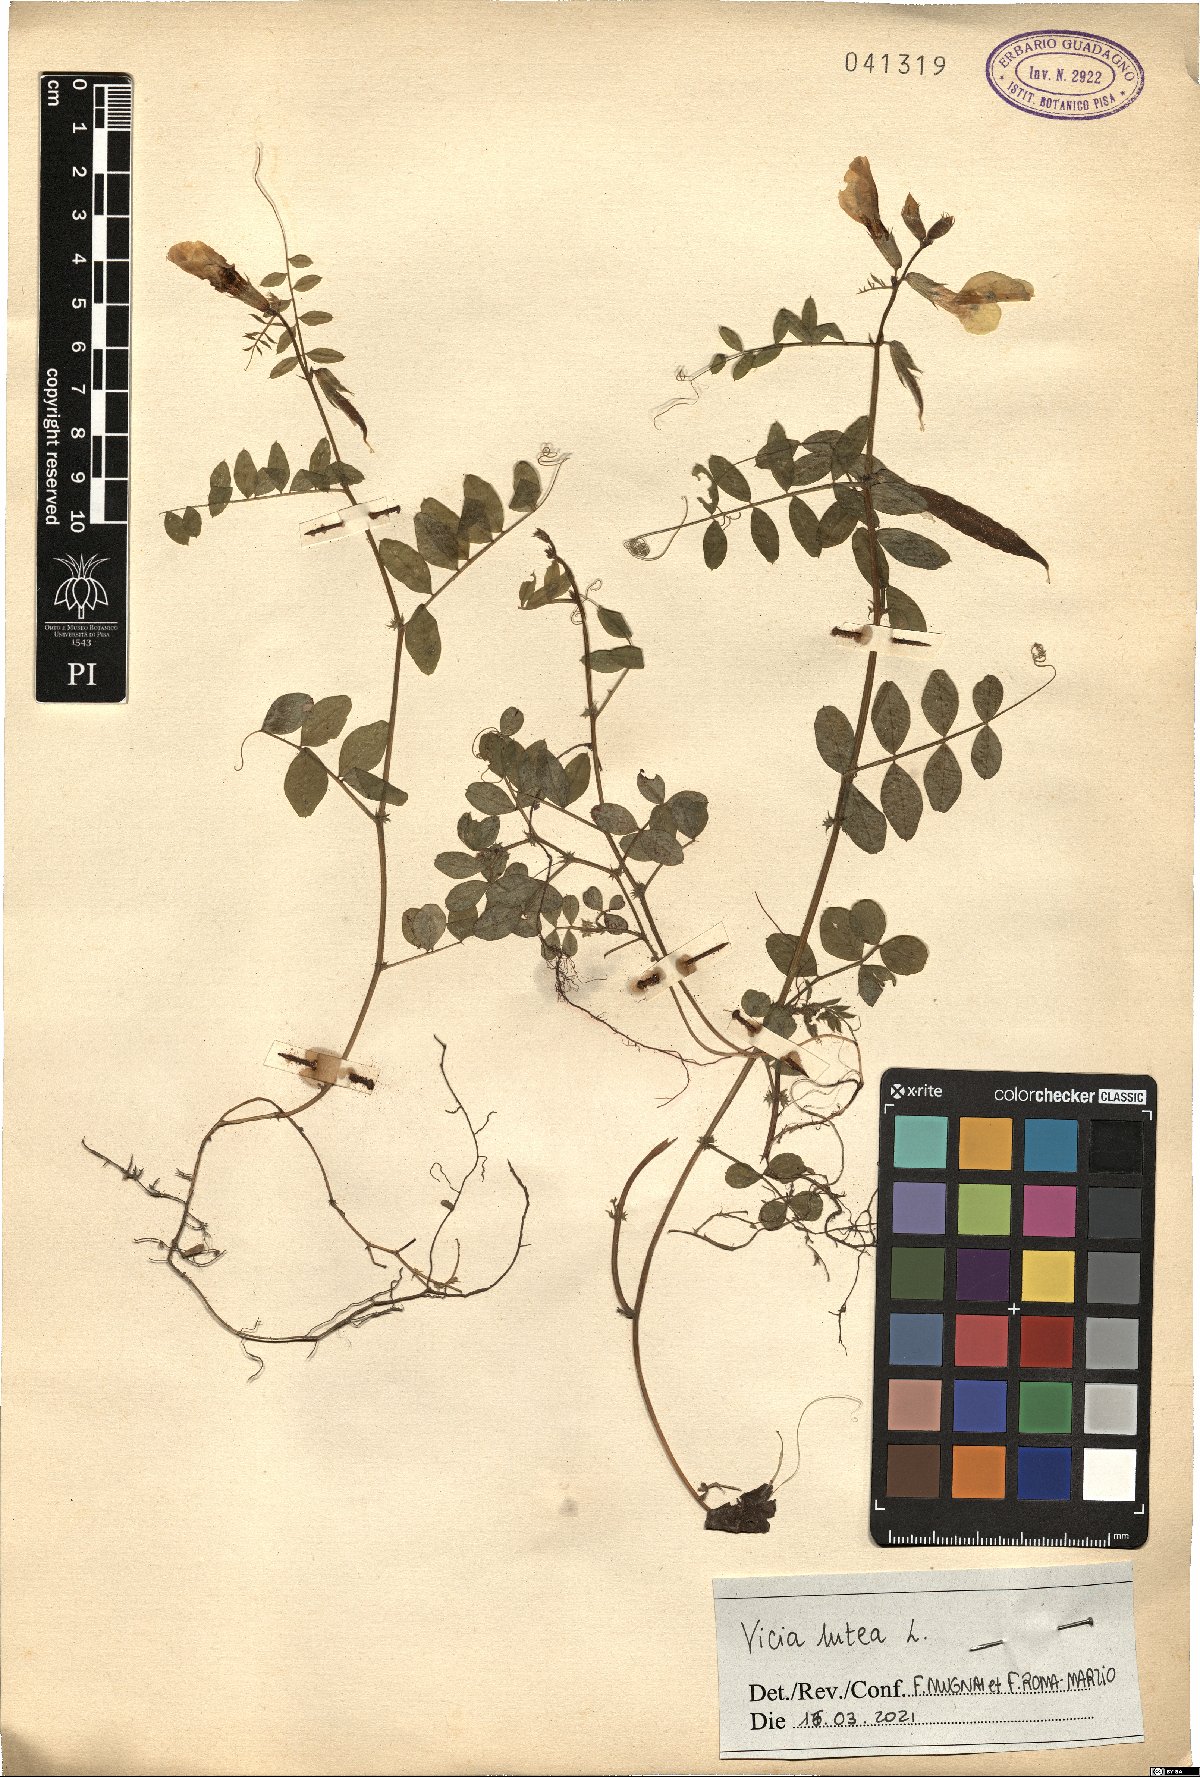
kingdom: Plantae
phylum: Tracheophyta
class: Magnoliopsida
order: Fabales
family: Fabaceae
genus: Vicia
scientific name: Vicia lutea
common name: Smooth yellow vetch
